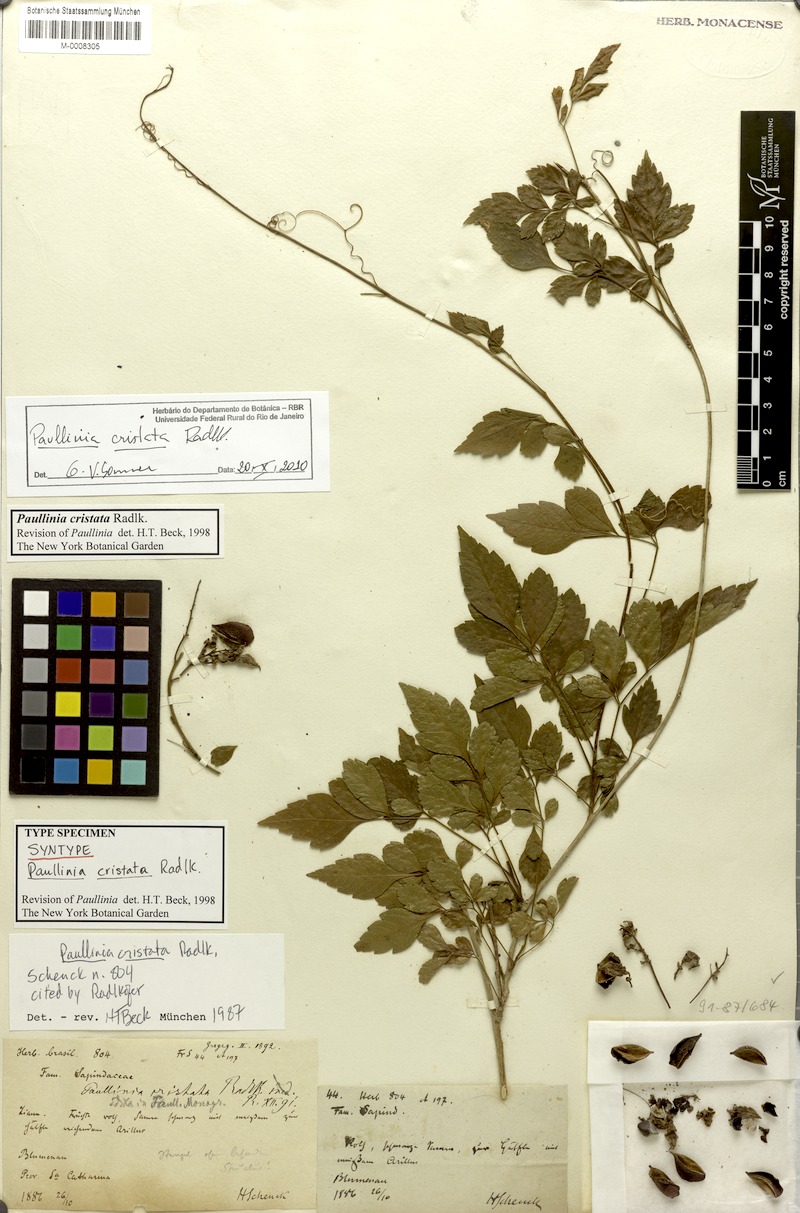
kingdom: Plantae
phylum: Tracheophyta
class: Magnoliopsida
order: Sapindales
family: Sapindaceae
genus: Paullinia
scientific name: Paullinia cristata
